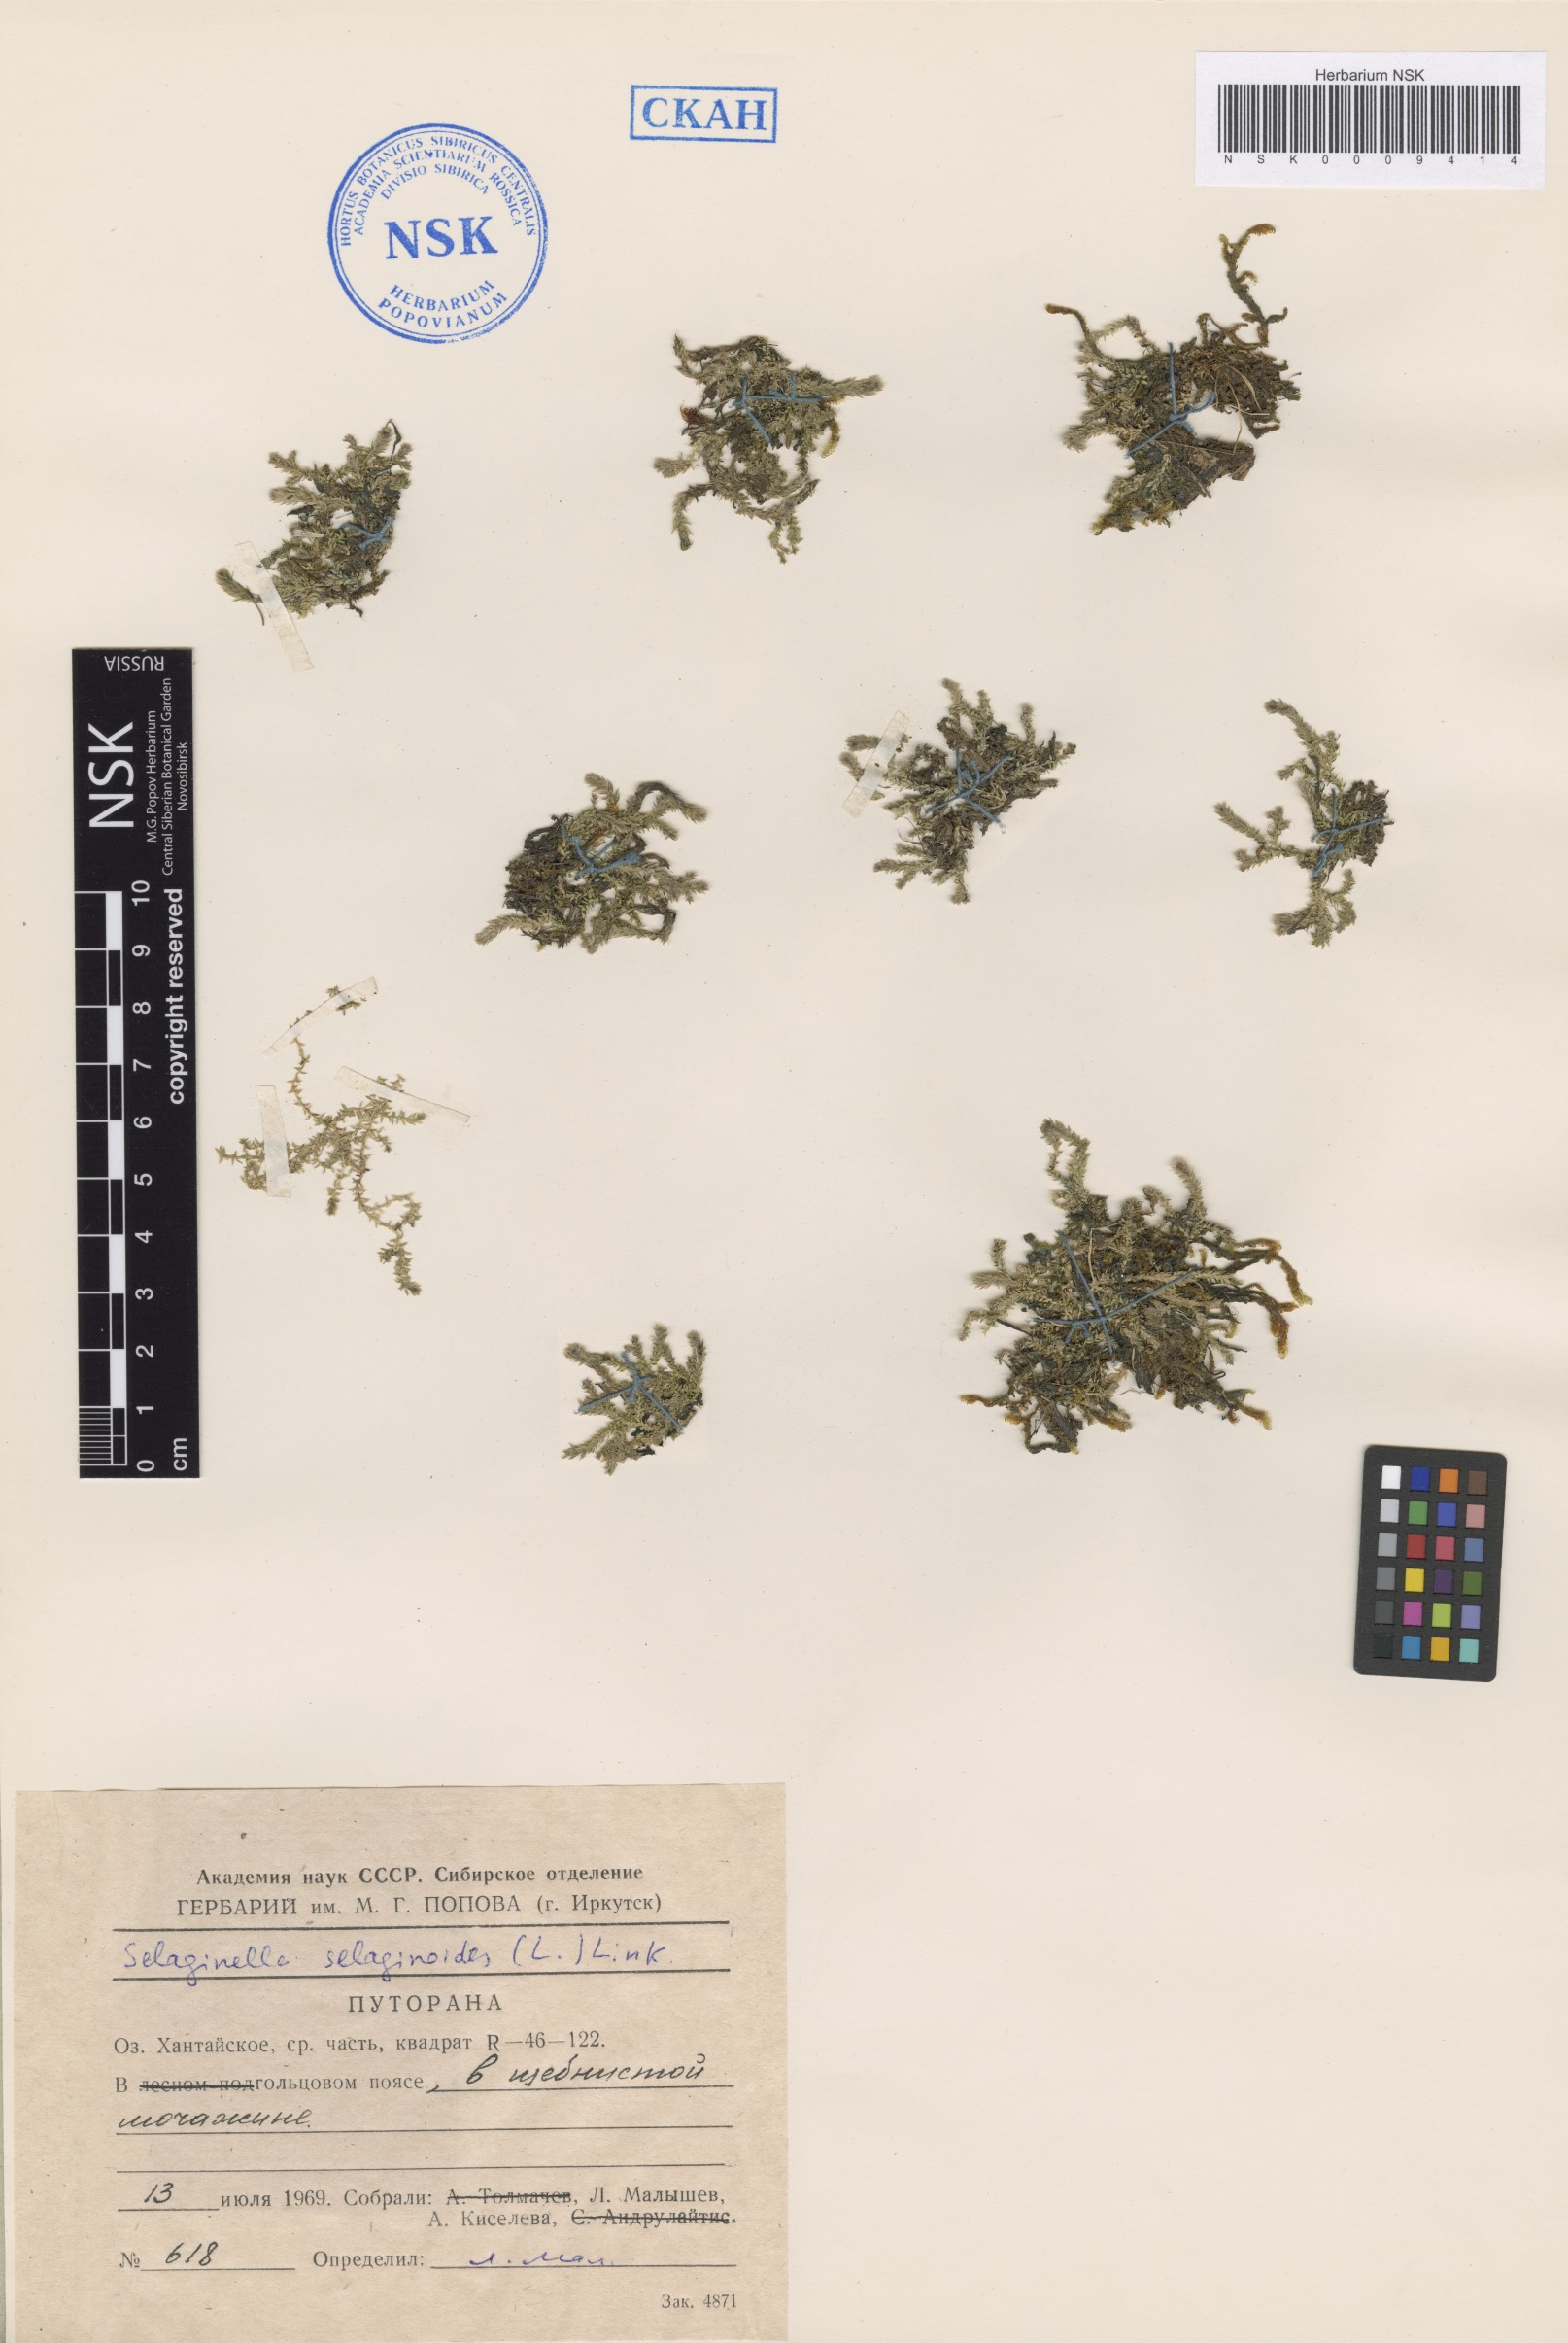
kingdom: Plantae
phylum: Tracheophyta
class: Lycopodiopsida
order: Selaginellales
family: Selaginellaceae
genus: Selaginella
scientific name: Selaginella selaginoides
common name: Prickly mountain-moss
